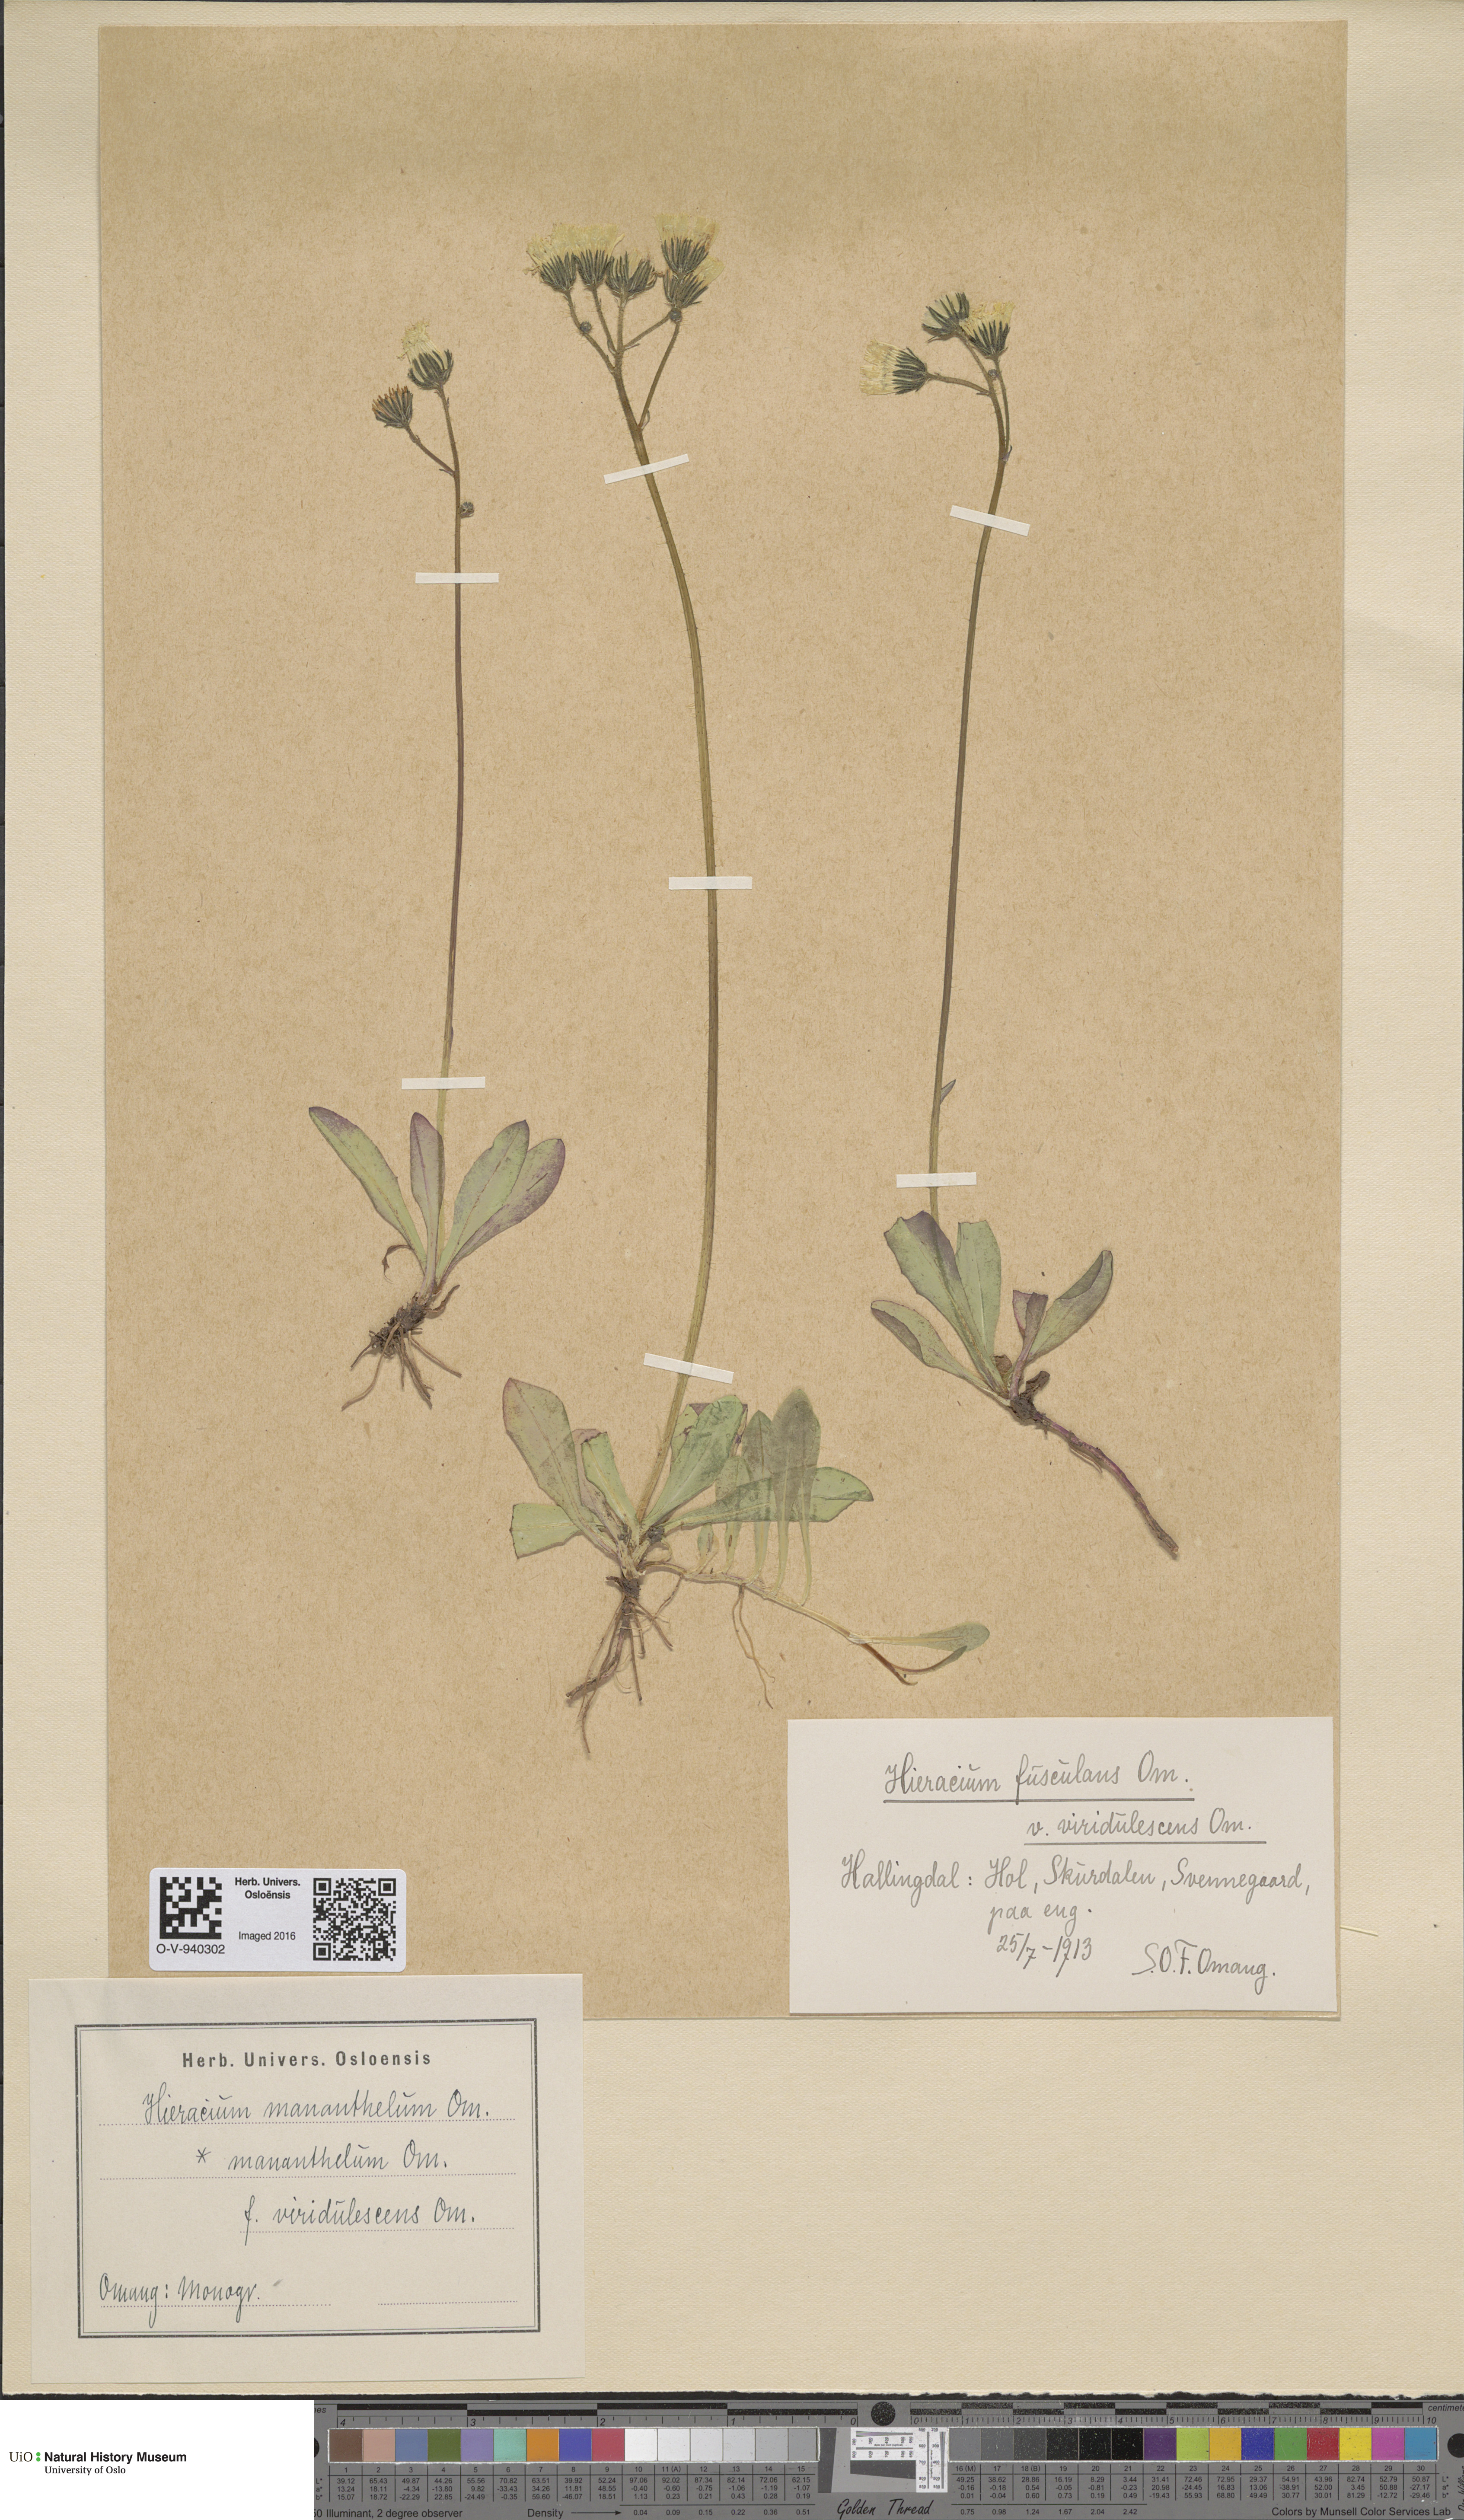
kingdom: Plantae
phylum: Tracheophyta
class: Magnoliopsida
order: Asterales
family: Asteraceae
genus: Pilosella
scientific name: Pilosella dubia
